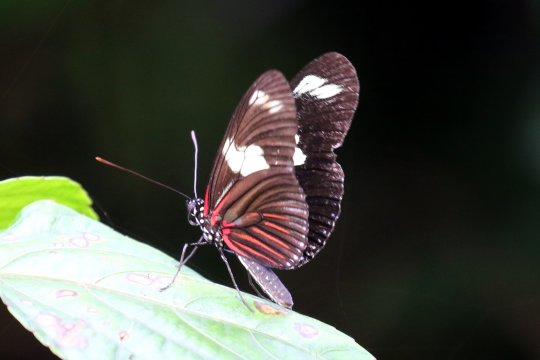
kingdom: Animalia
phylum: Arthropoda
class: Insecta
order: Lepidoptera
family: Nymphalidae
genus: Heliconius
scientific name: Heliconius doris
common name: Doris Longwing
